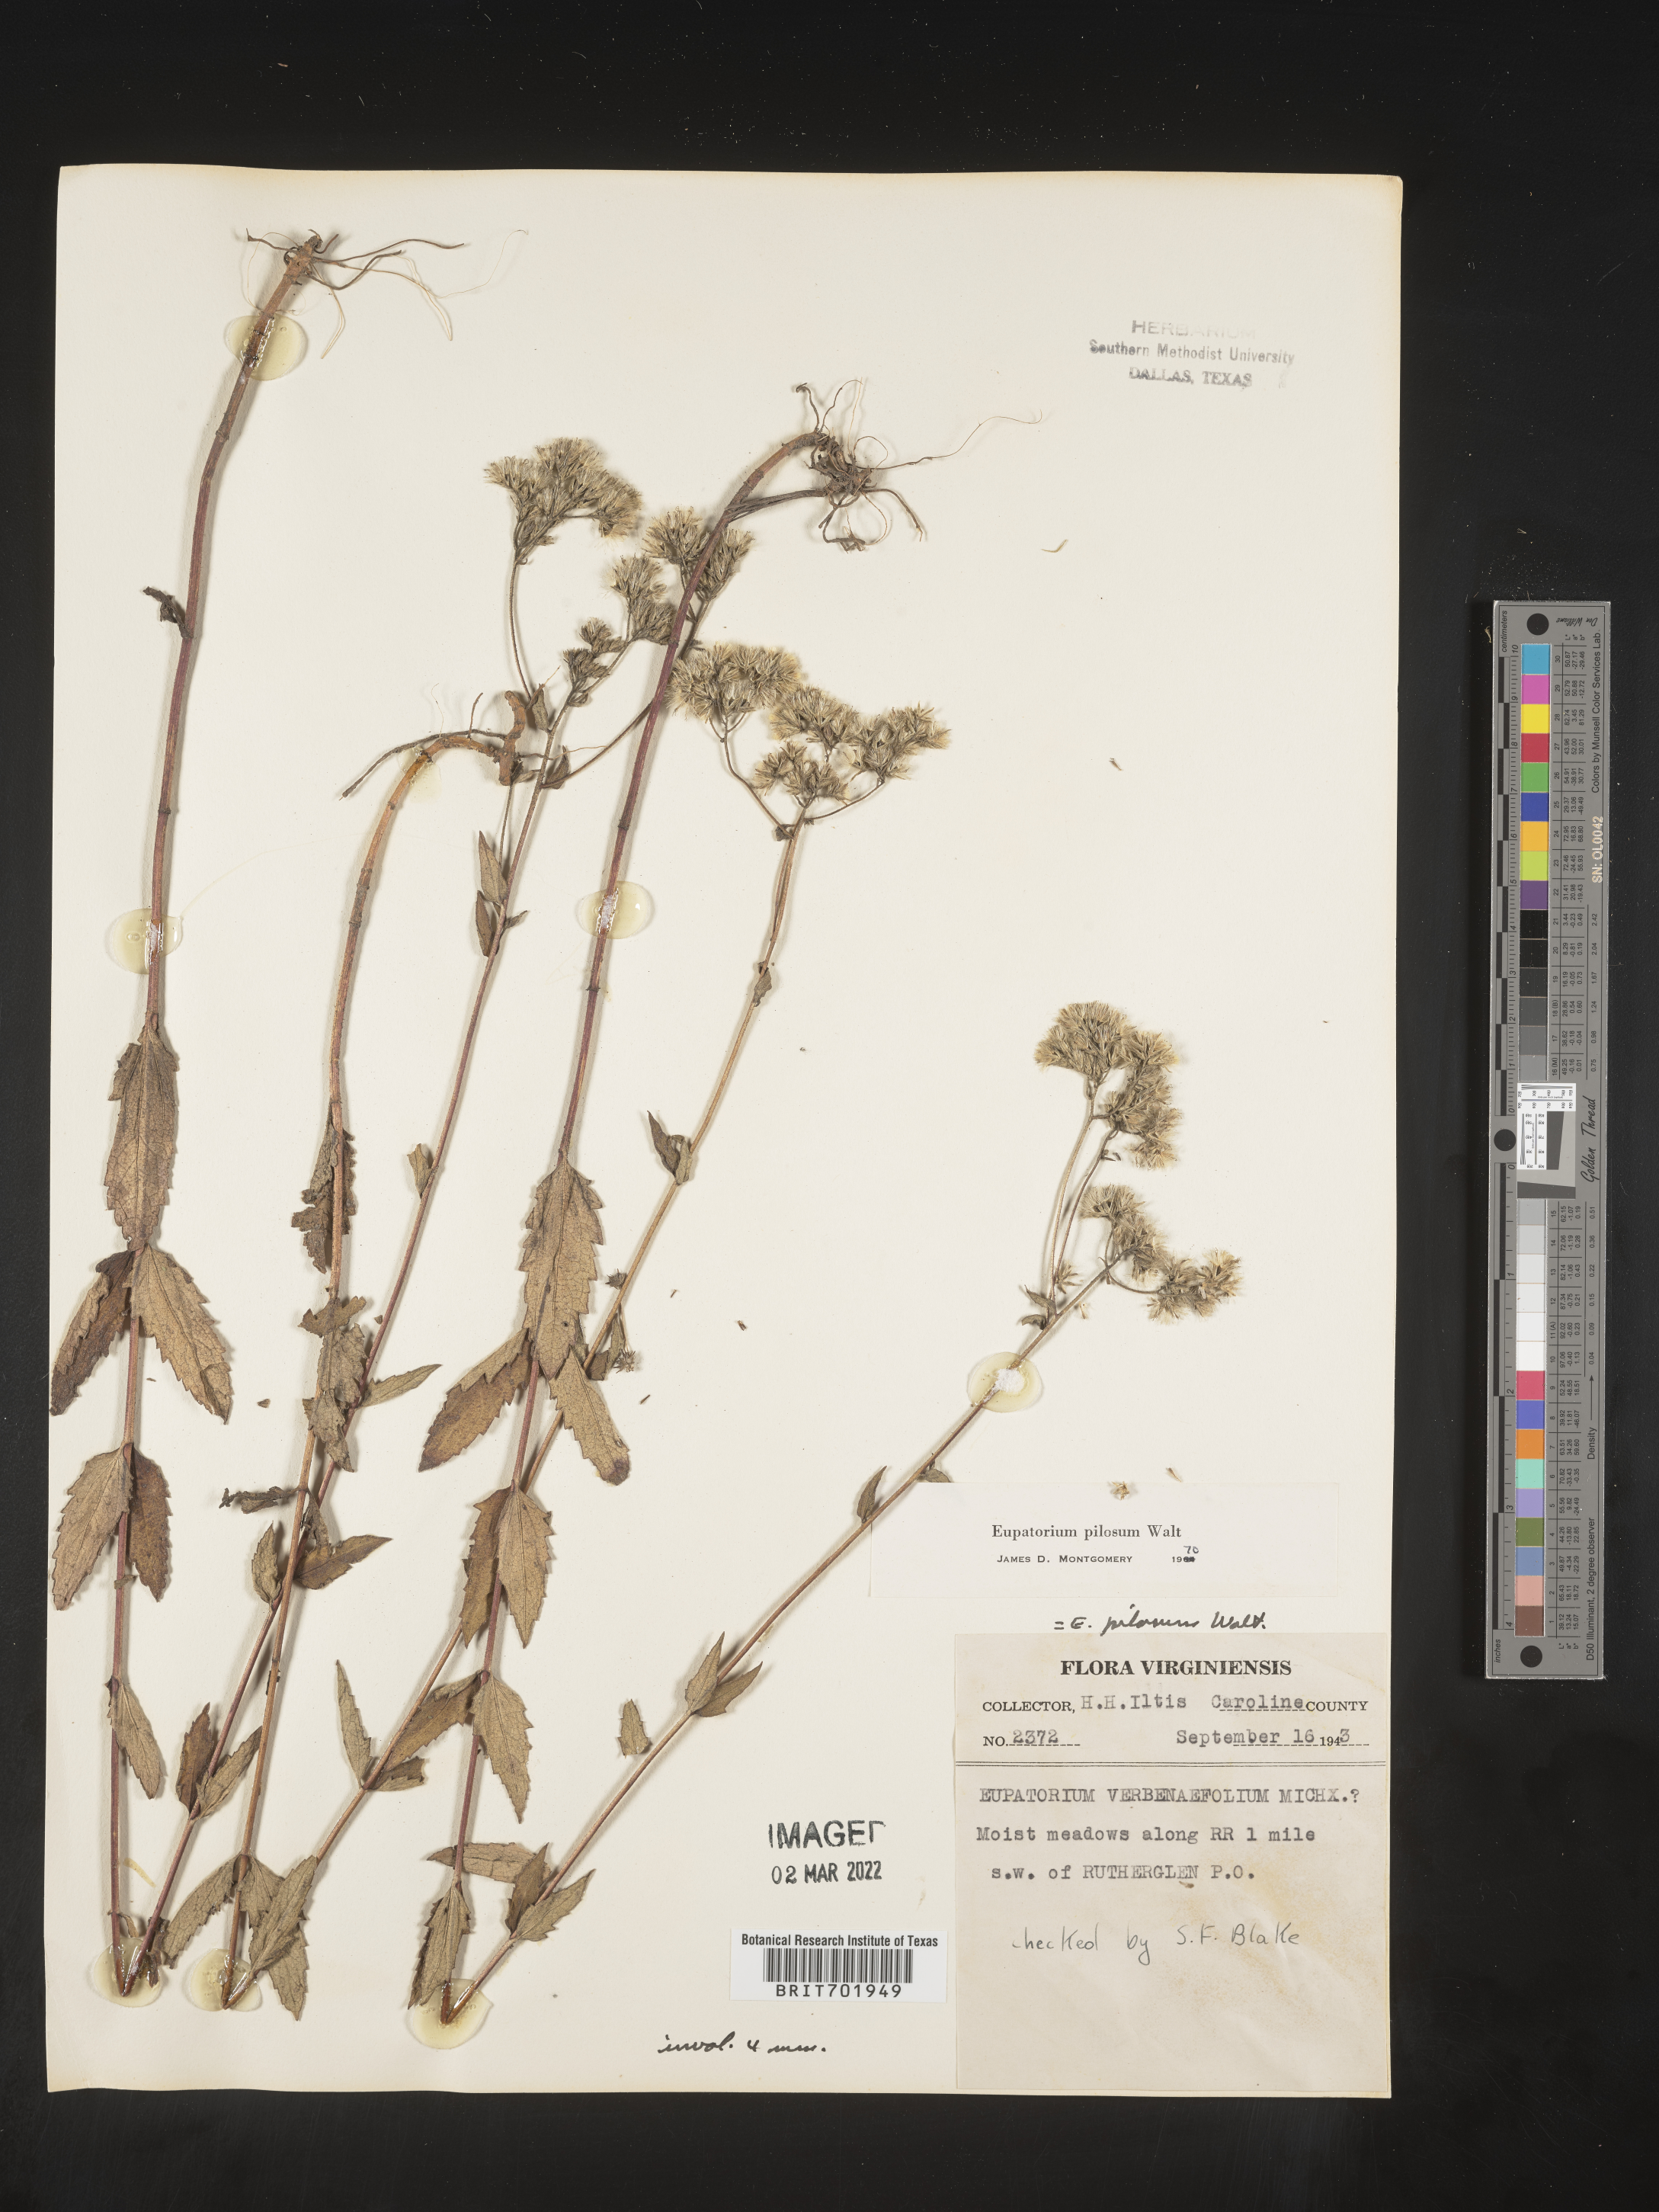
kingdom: Plantae
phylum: Tracheophyta
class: Magnoliopsida
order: Asterales
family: Asteraceae
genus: Eupatorium
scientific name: Eupatorium pilosum
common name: Rough boneset
